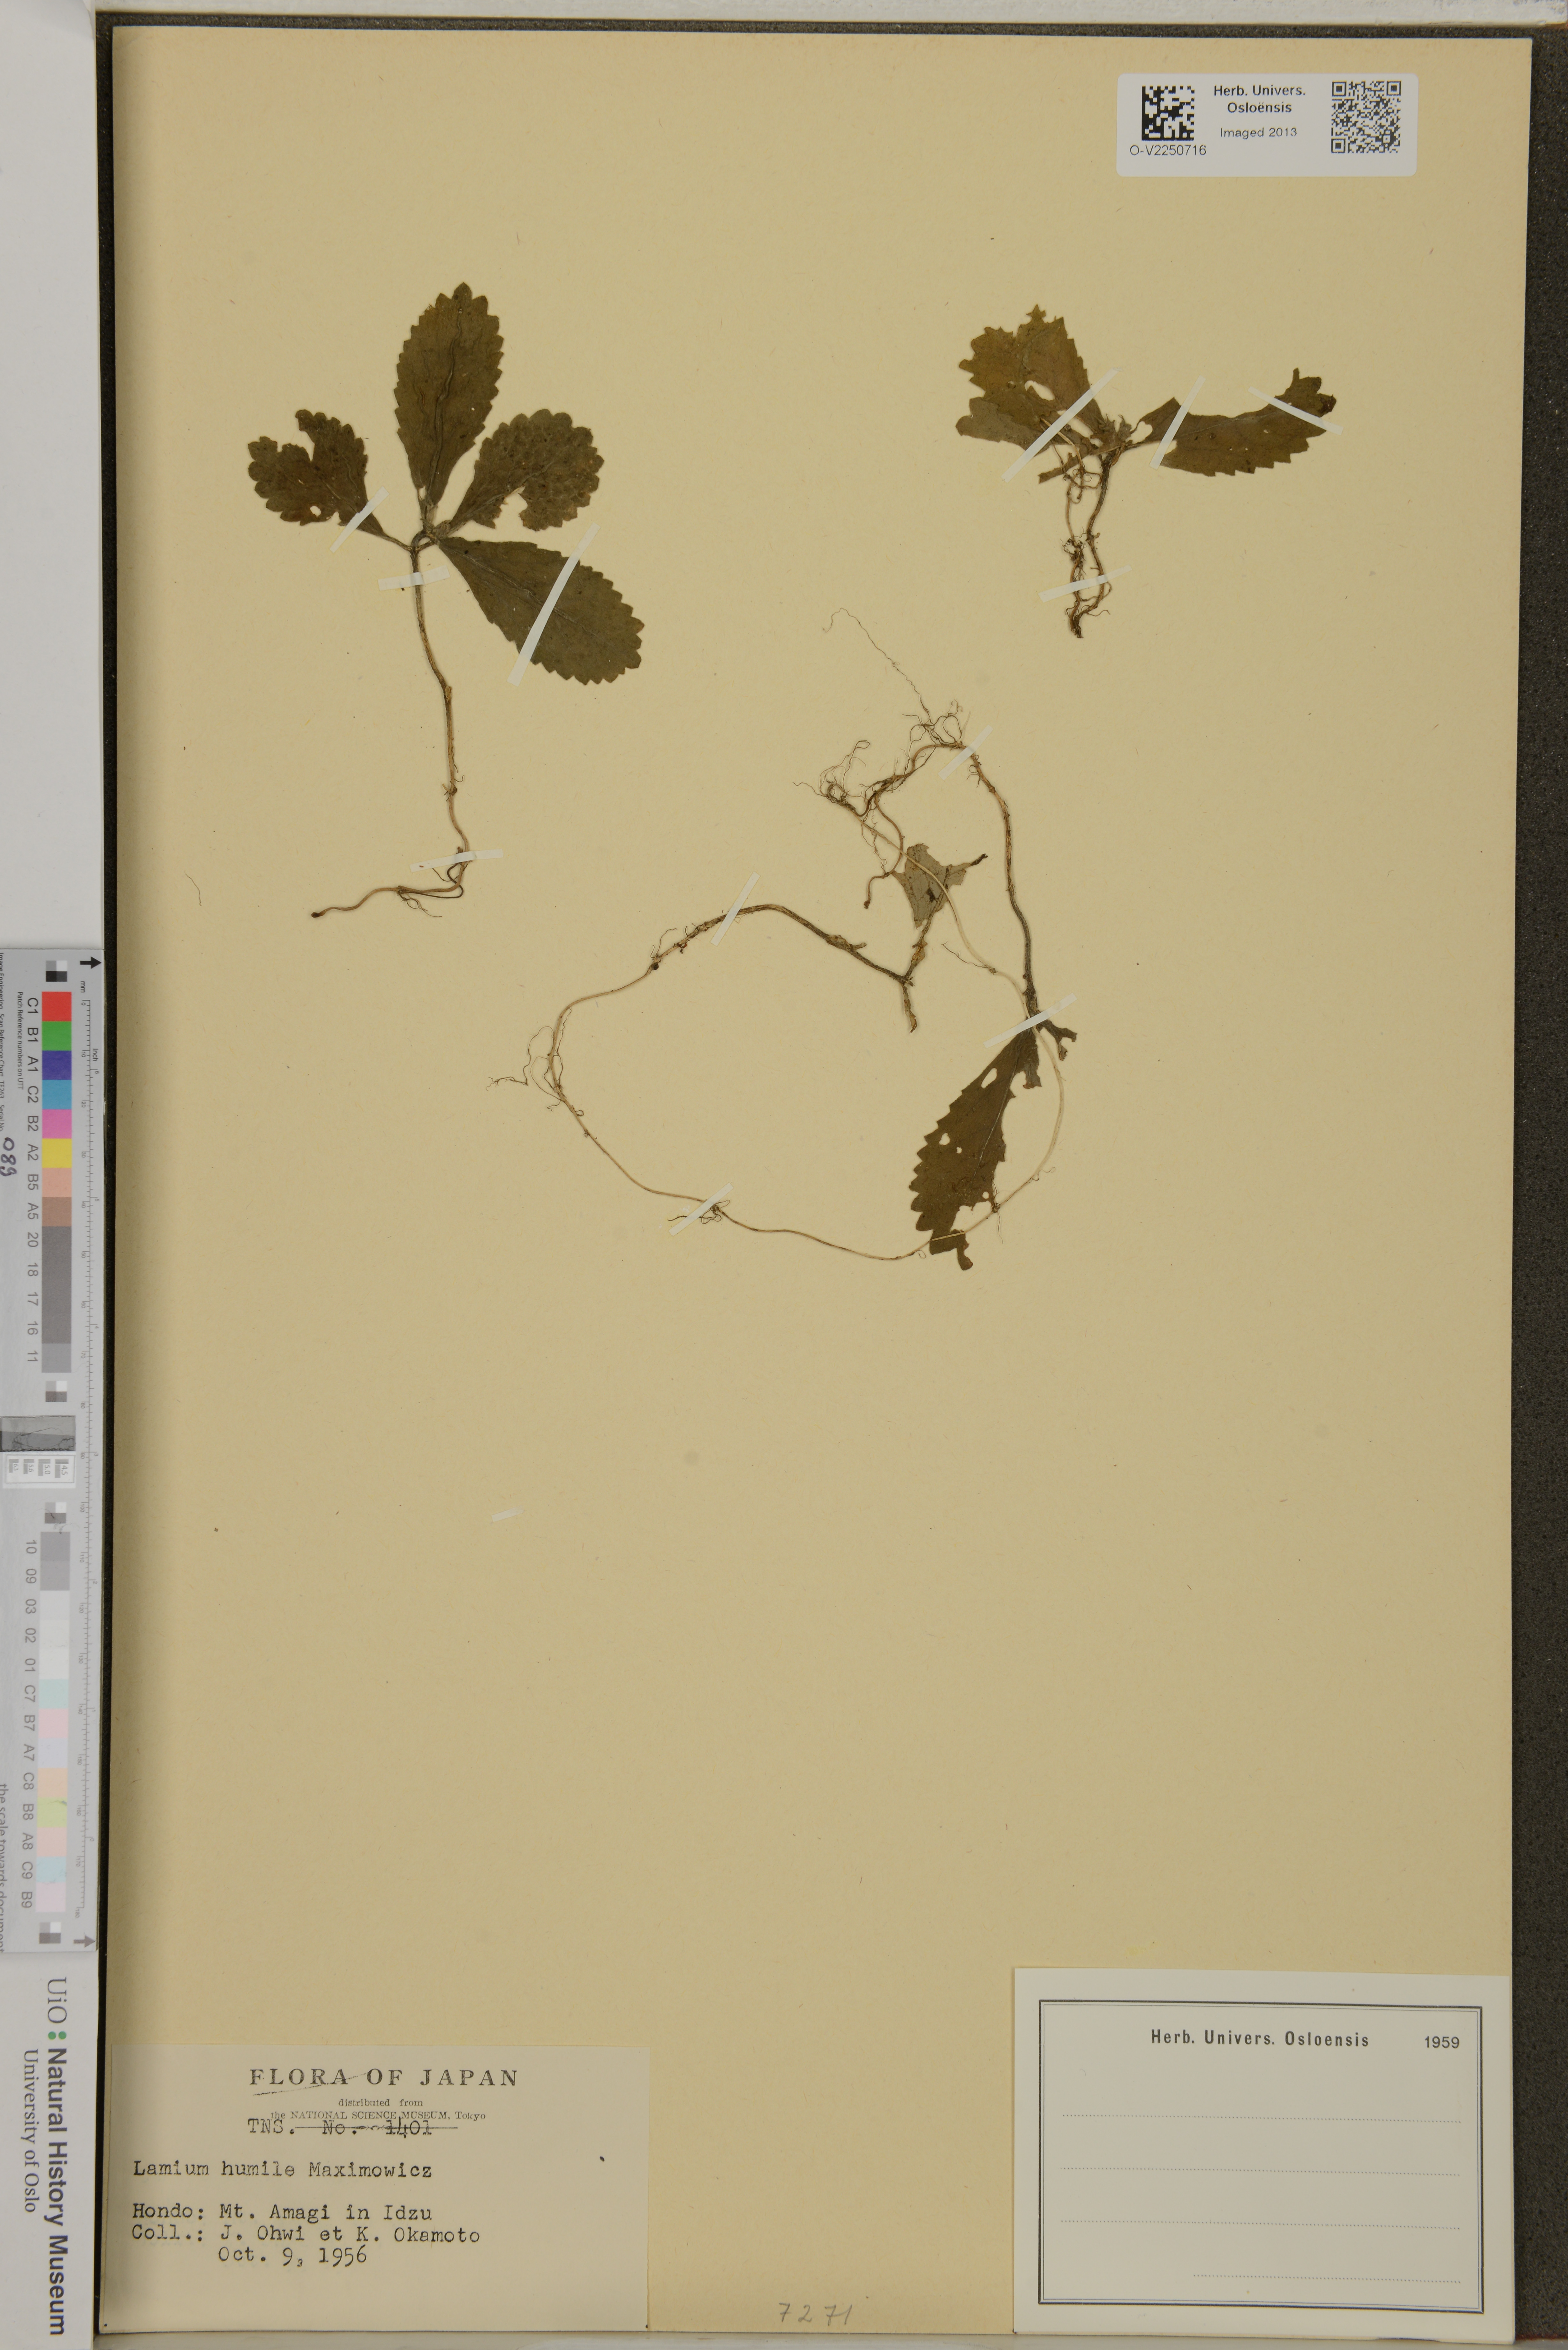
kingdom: Plantae
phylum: Tracheophyta
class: Magnoliopsida
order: Lamiales
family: Lamiaceae
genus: Ajugoides
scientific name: Ajugoides humilis
